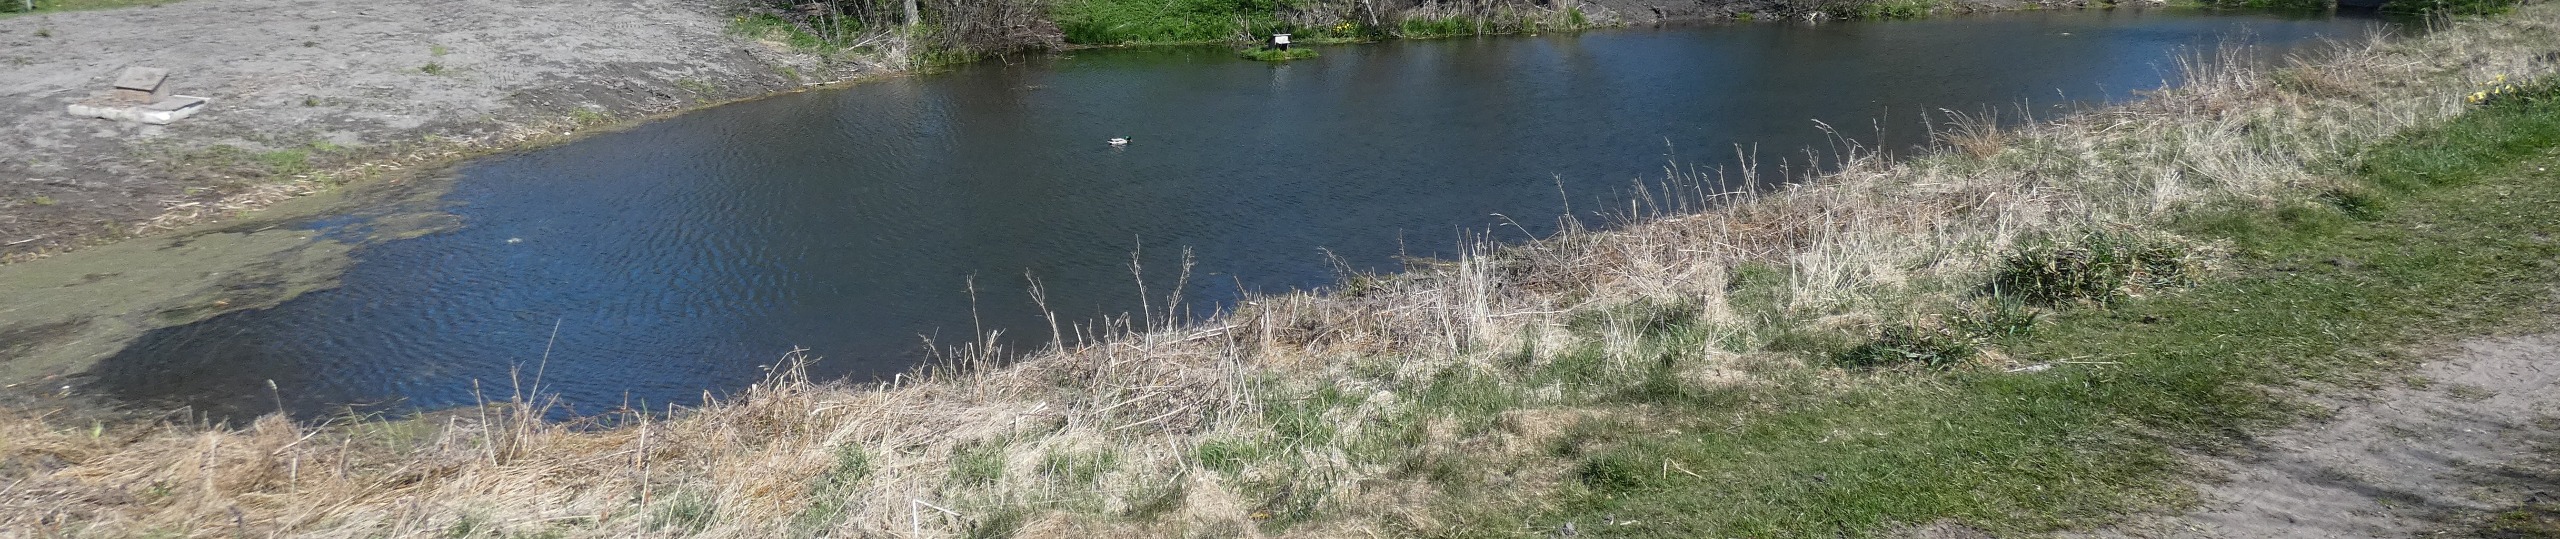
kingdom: Animalia
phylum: Chordata
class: Aves
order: Anseriformes
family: Anatidae
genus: Anas
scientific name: Anas platyrhynchos
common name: Gråand
